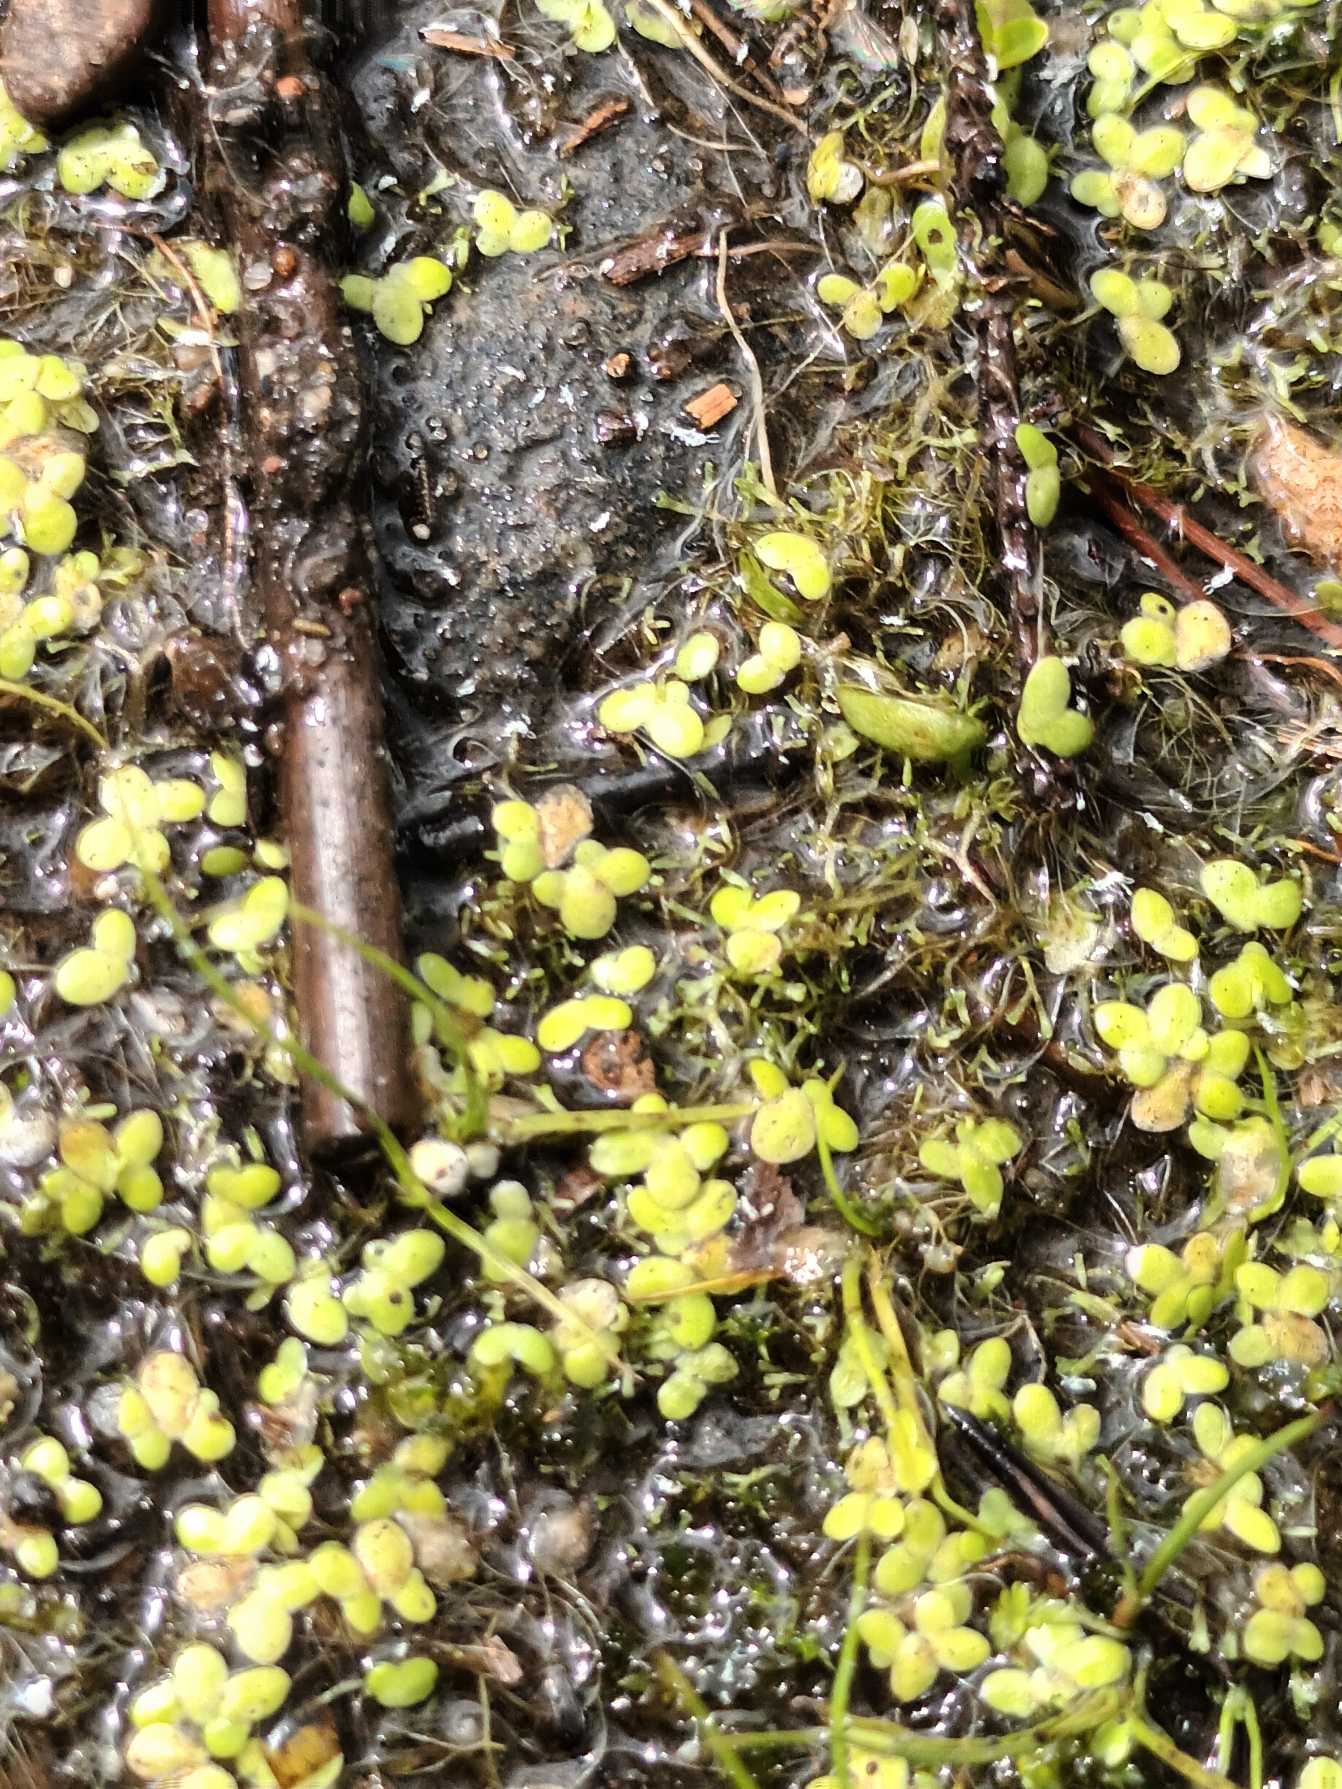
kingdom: Plantae
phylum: Tracheophyta
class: Liliopsida
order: Alismatales
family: Araceae
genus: Lemna
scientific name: Lemna minor
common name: Liden andemad
